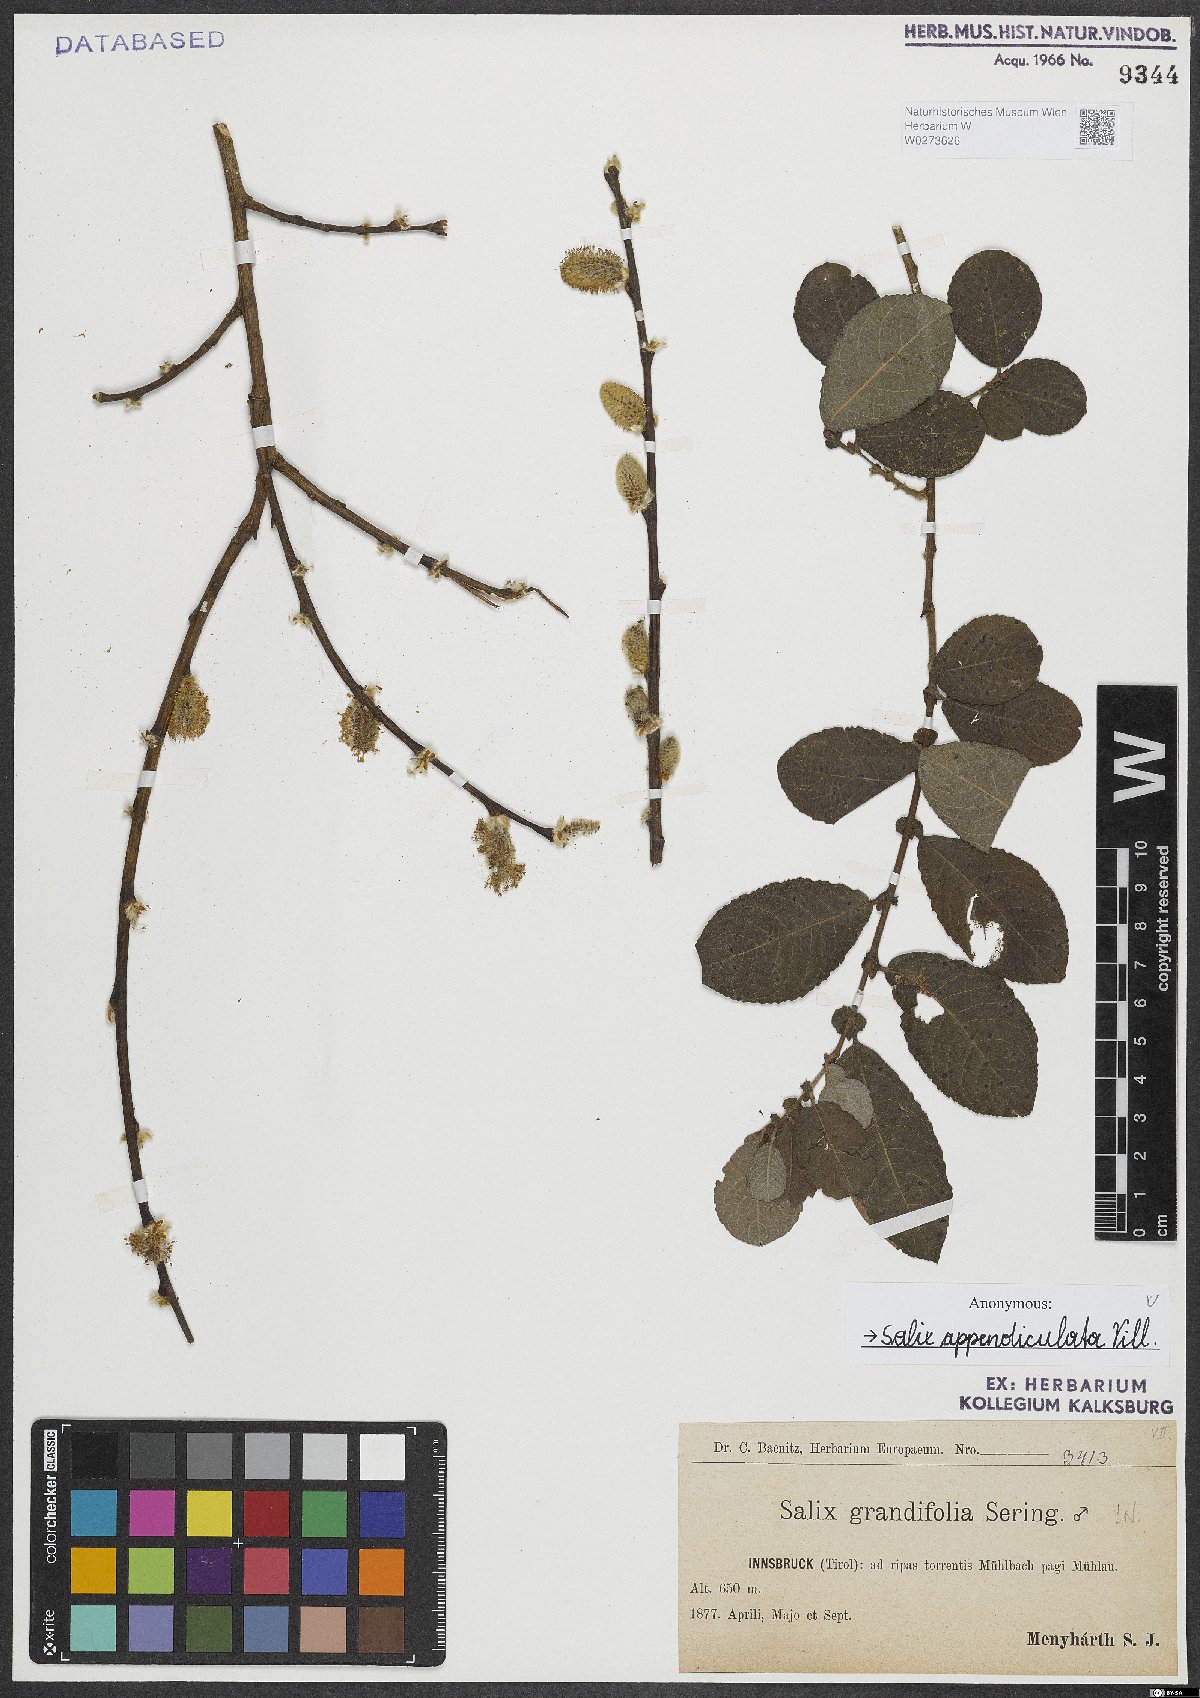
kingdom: Plantae
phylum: Tracheophyta
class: Magnoliopsida
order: Malpighiales
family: Salicaceae
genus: Salix
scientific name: Salix appendiculata
